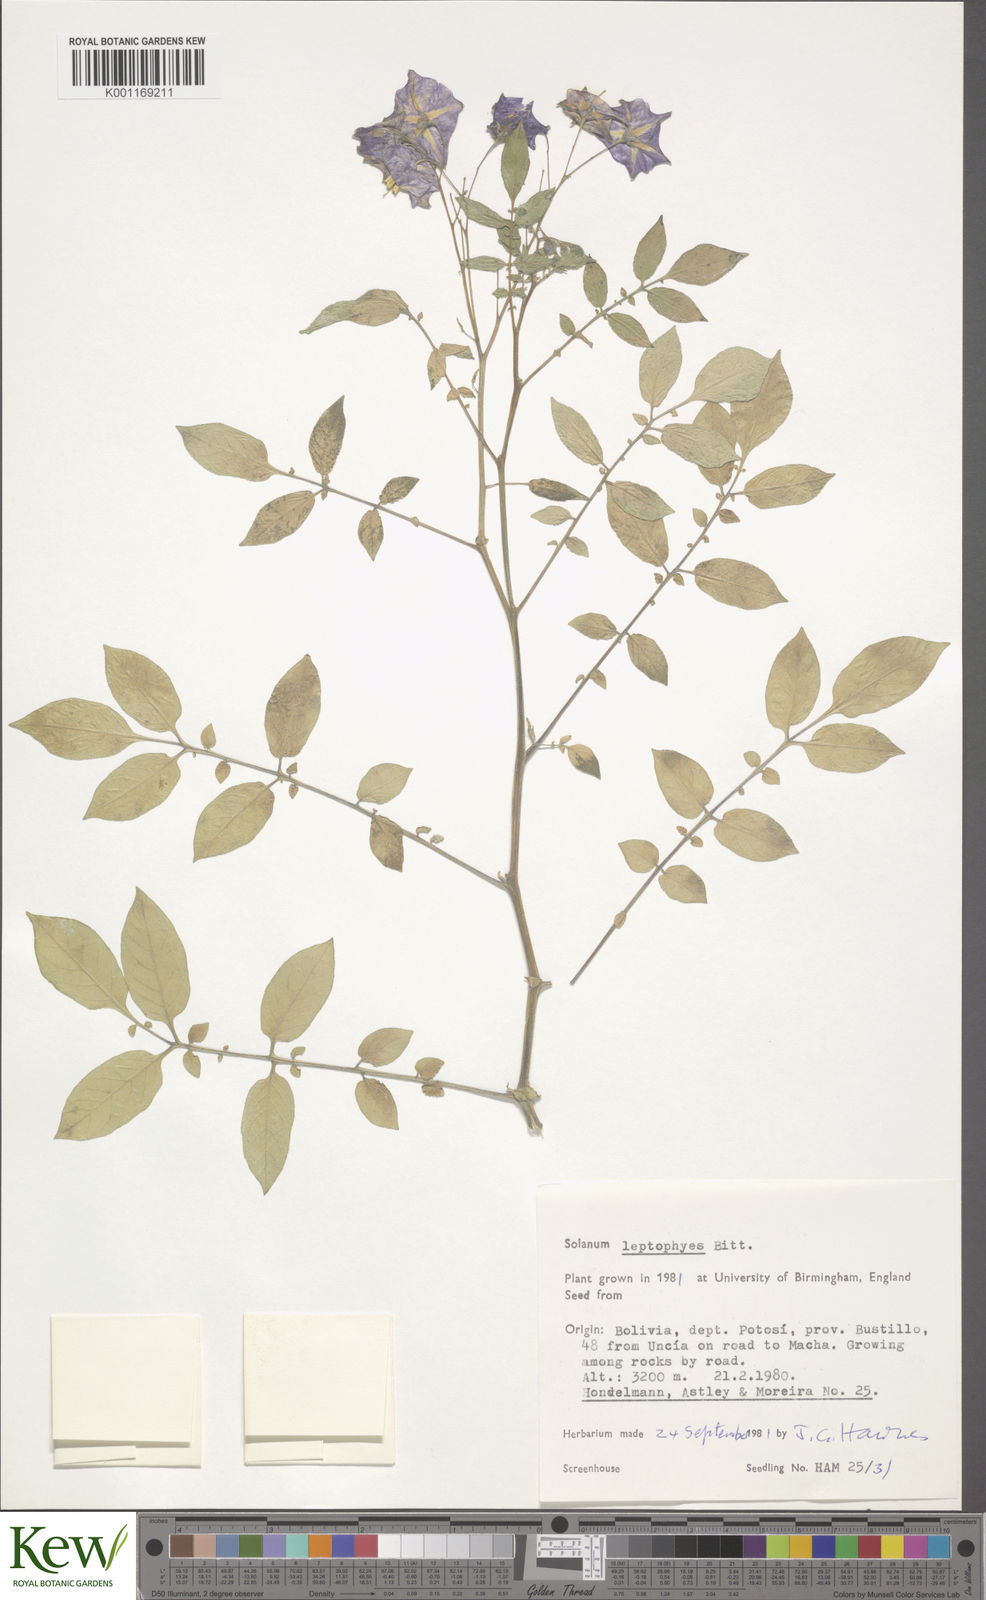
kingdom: Plantae
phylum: Tracheophyta
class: Magnoliopsida
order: Solanales
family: Solanaceae
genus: Solanum
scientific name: Solanum brevicaule
